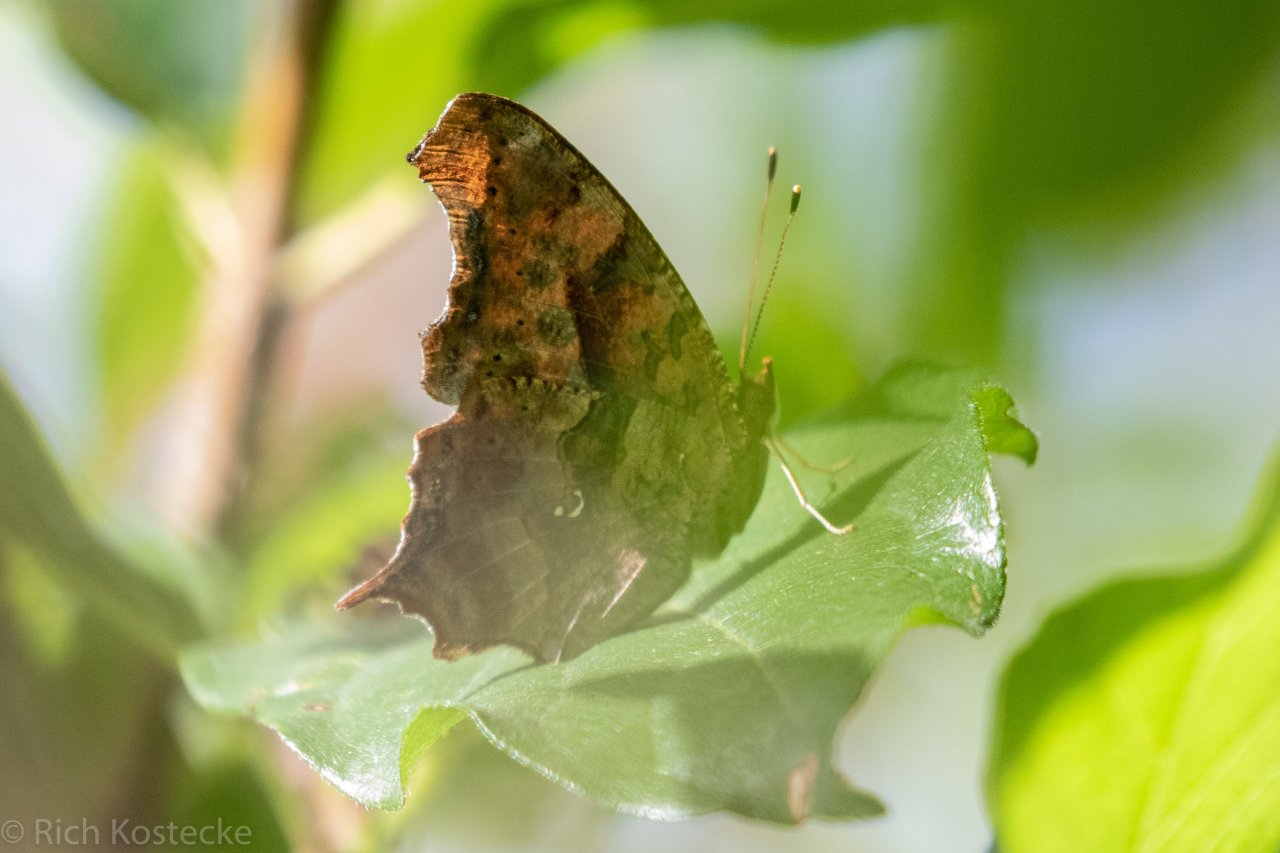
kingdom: Animalia
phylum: Arthropoda
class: Insecta
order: Lepidoptera
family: Nymphalidae
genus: Polygonia
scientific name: Polygonia interrogationis
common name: Question Mark
